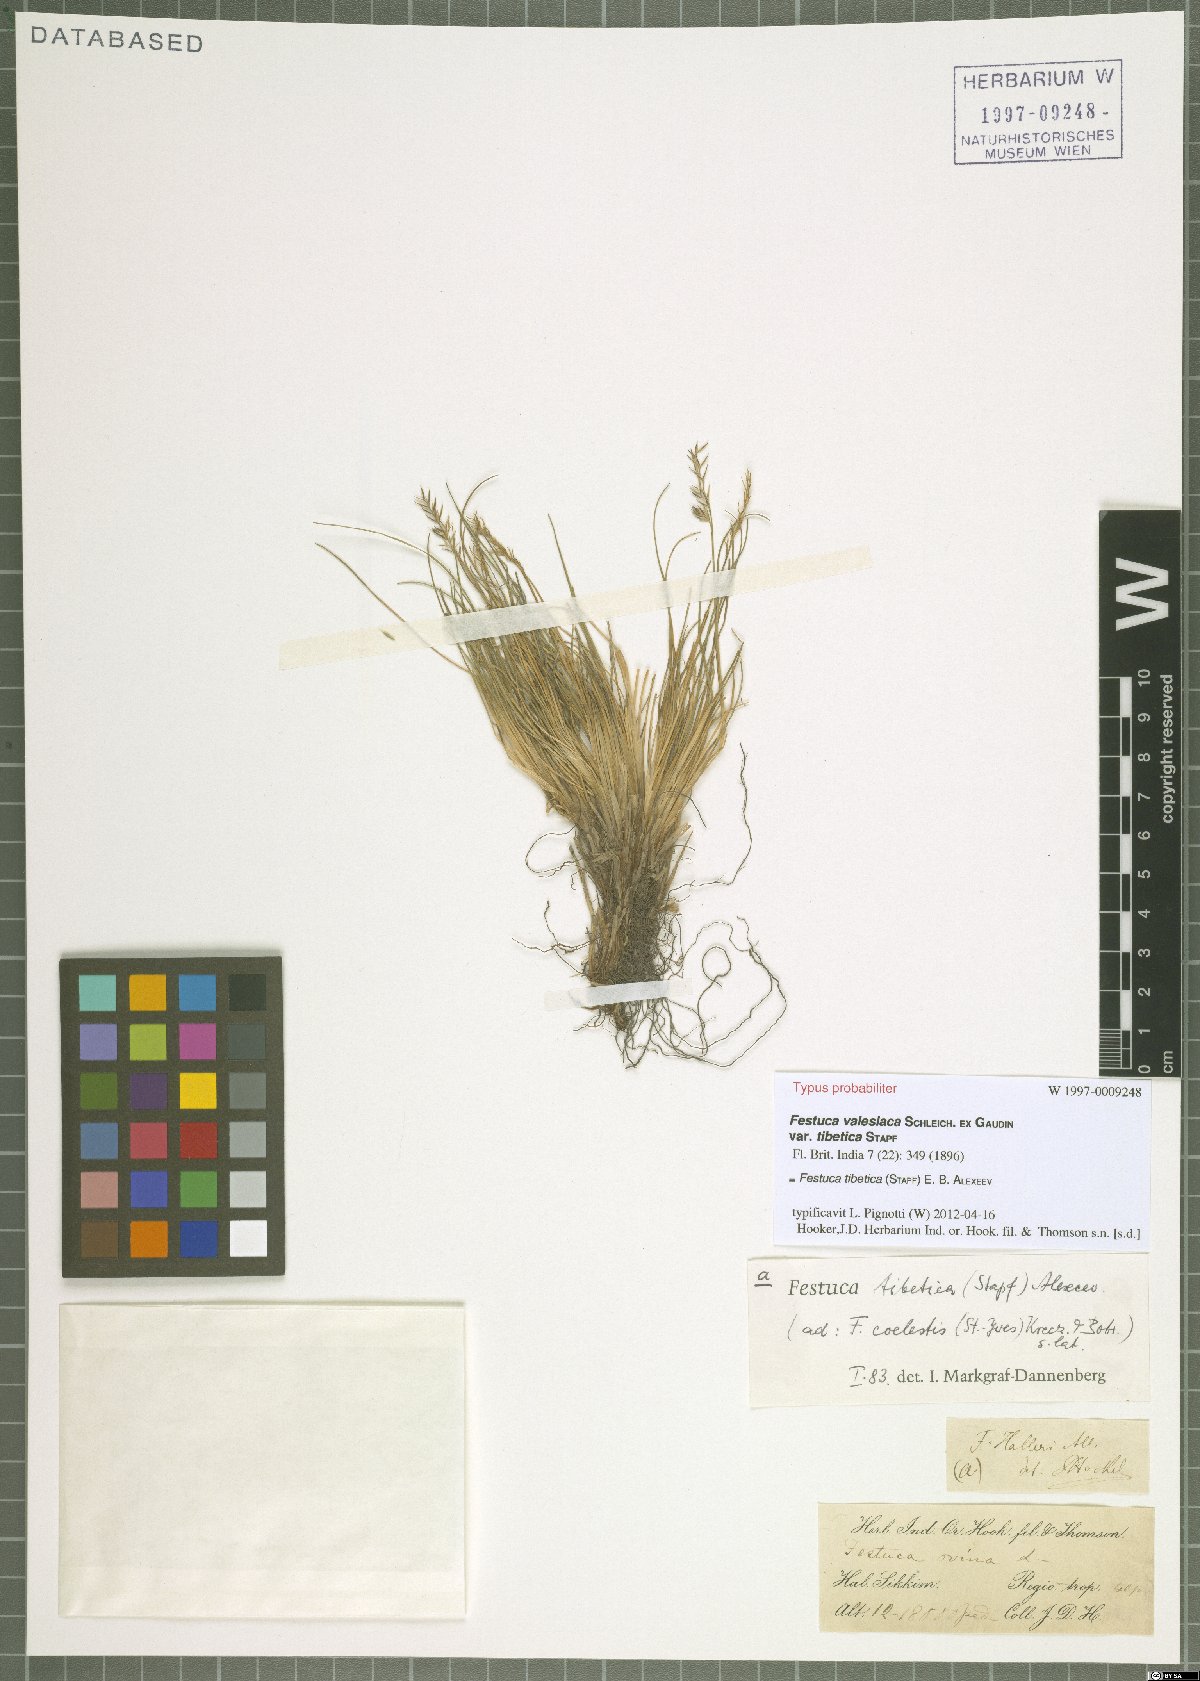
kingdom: Plantae
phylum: Tracheophyta
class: Liliopsida
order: Poales
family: Poaceae
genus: Festuca
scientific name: Festuca tibetica
